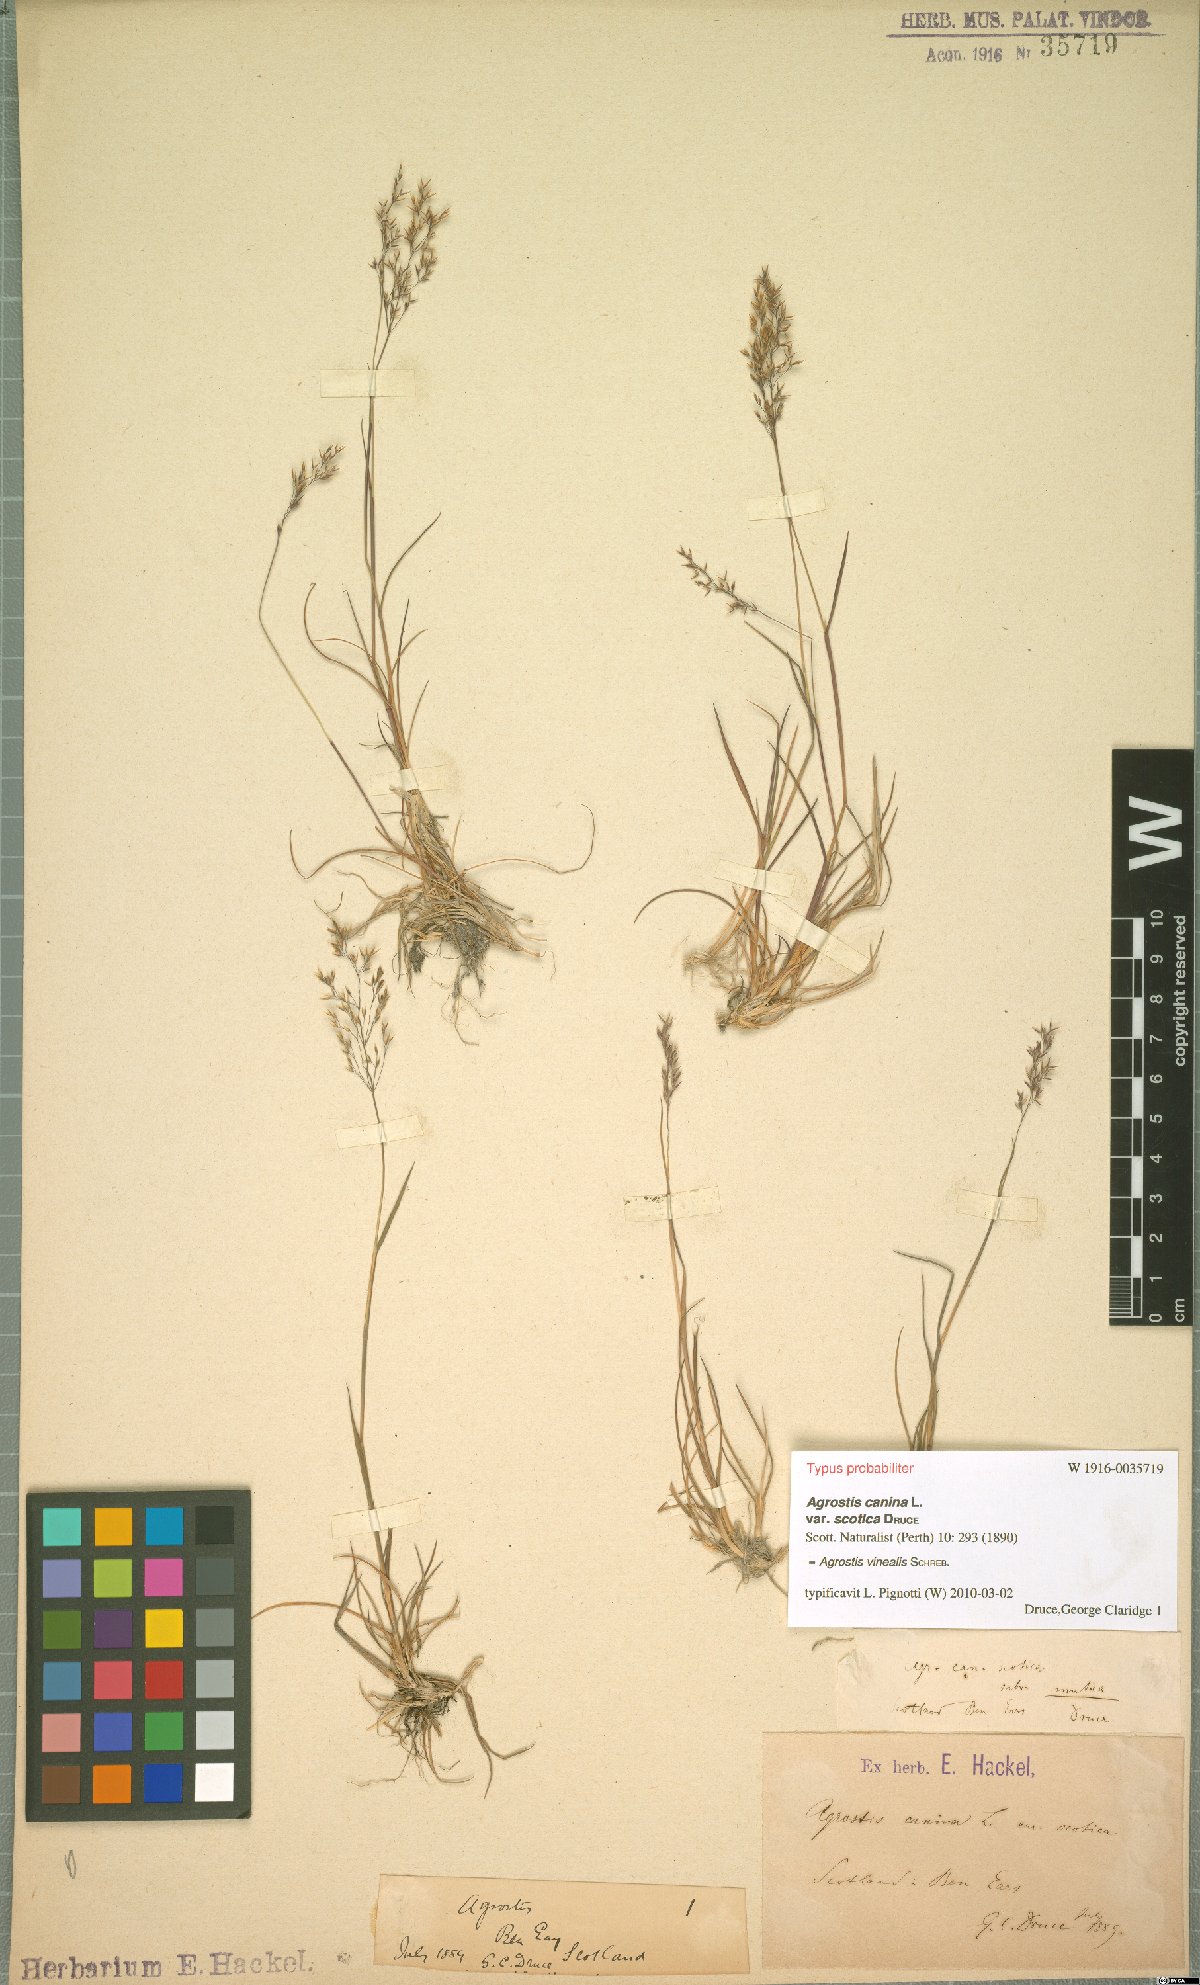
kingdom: Plantae
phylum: Tracheophyta
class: Liliopsida
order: Poales
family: Poaceae
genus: Agrostis
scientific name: Agrostis vinealis
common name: Brown bent
